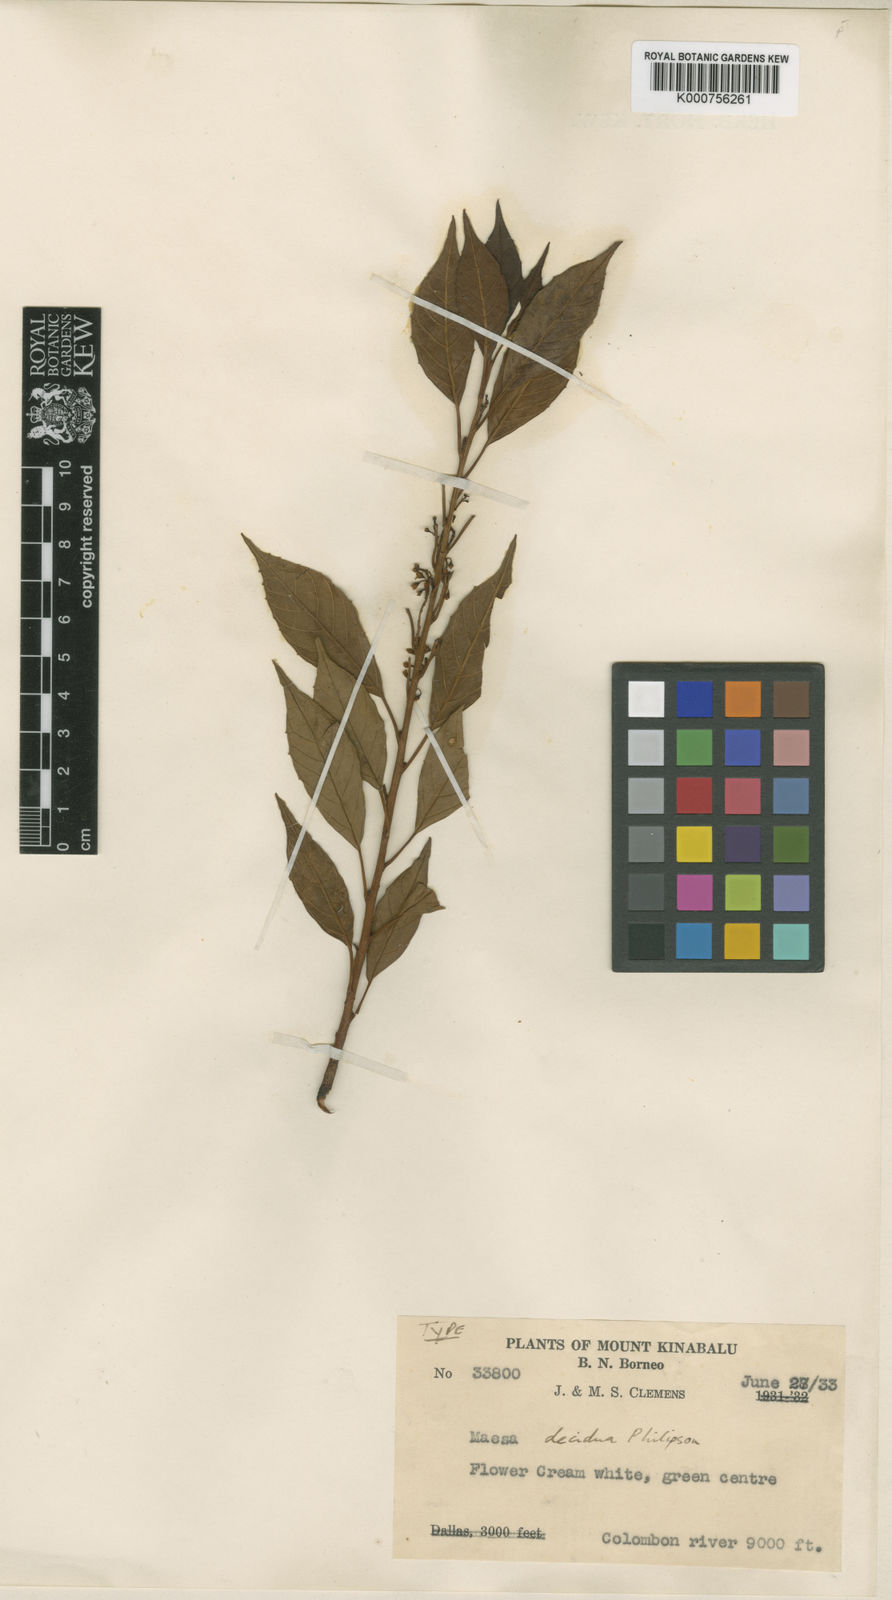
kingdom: Plantae
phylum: Tracheophyta
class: Magnoliopsida
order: Ericales
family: Primulaceae
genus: Maesa
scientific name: Maesa decidua
